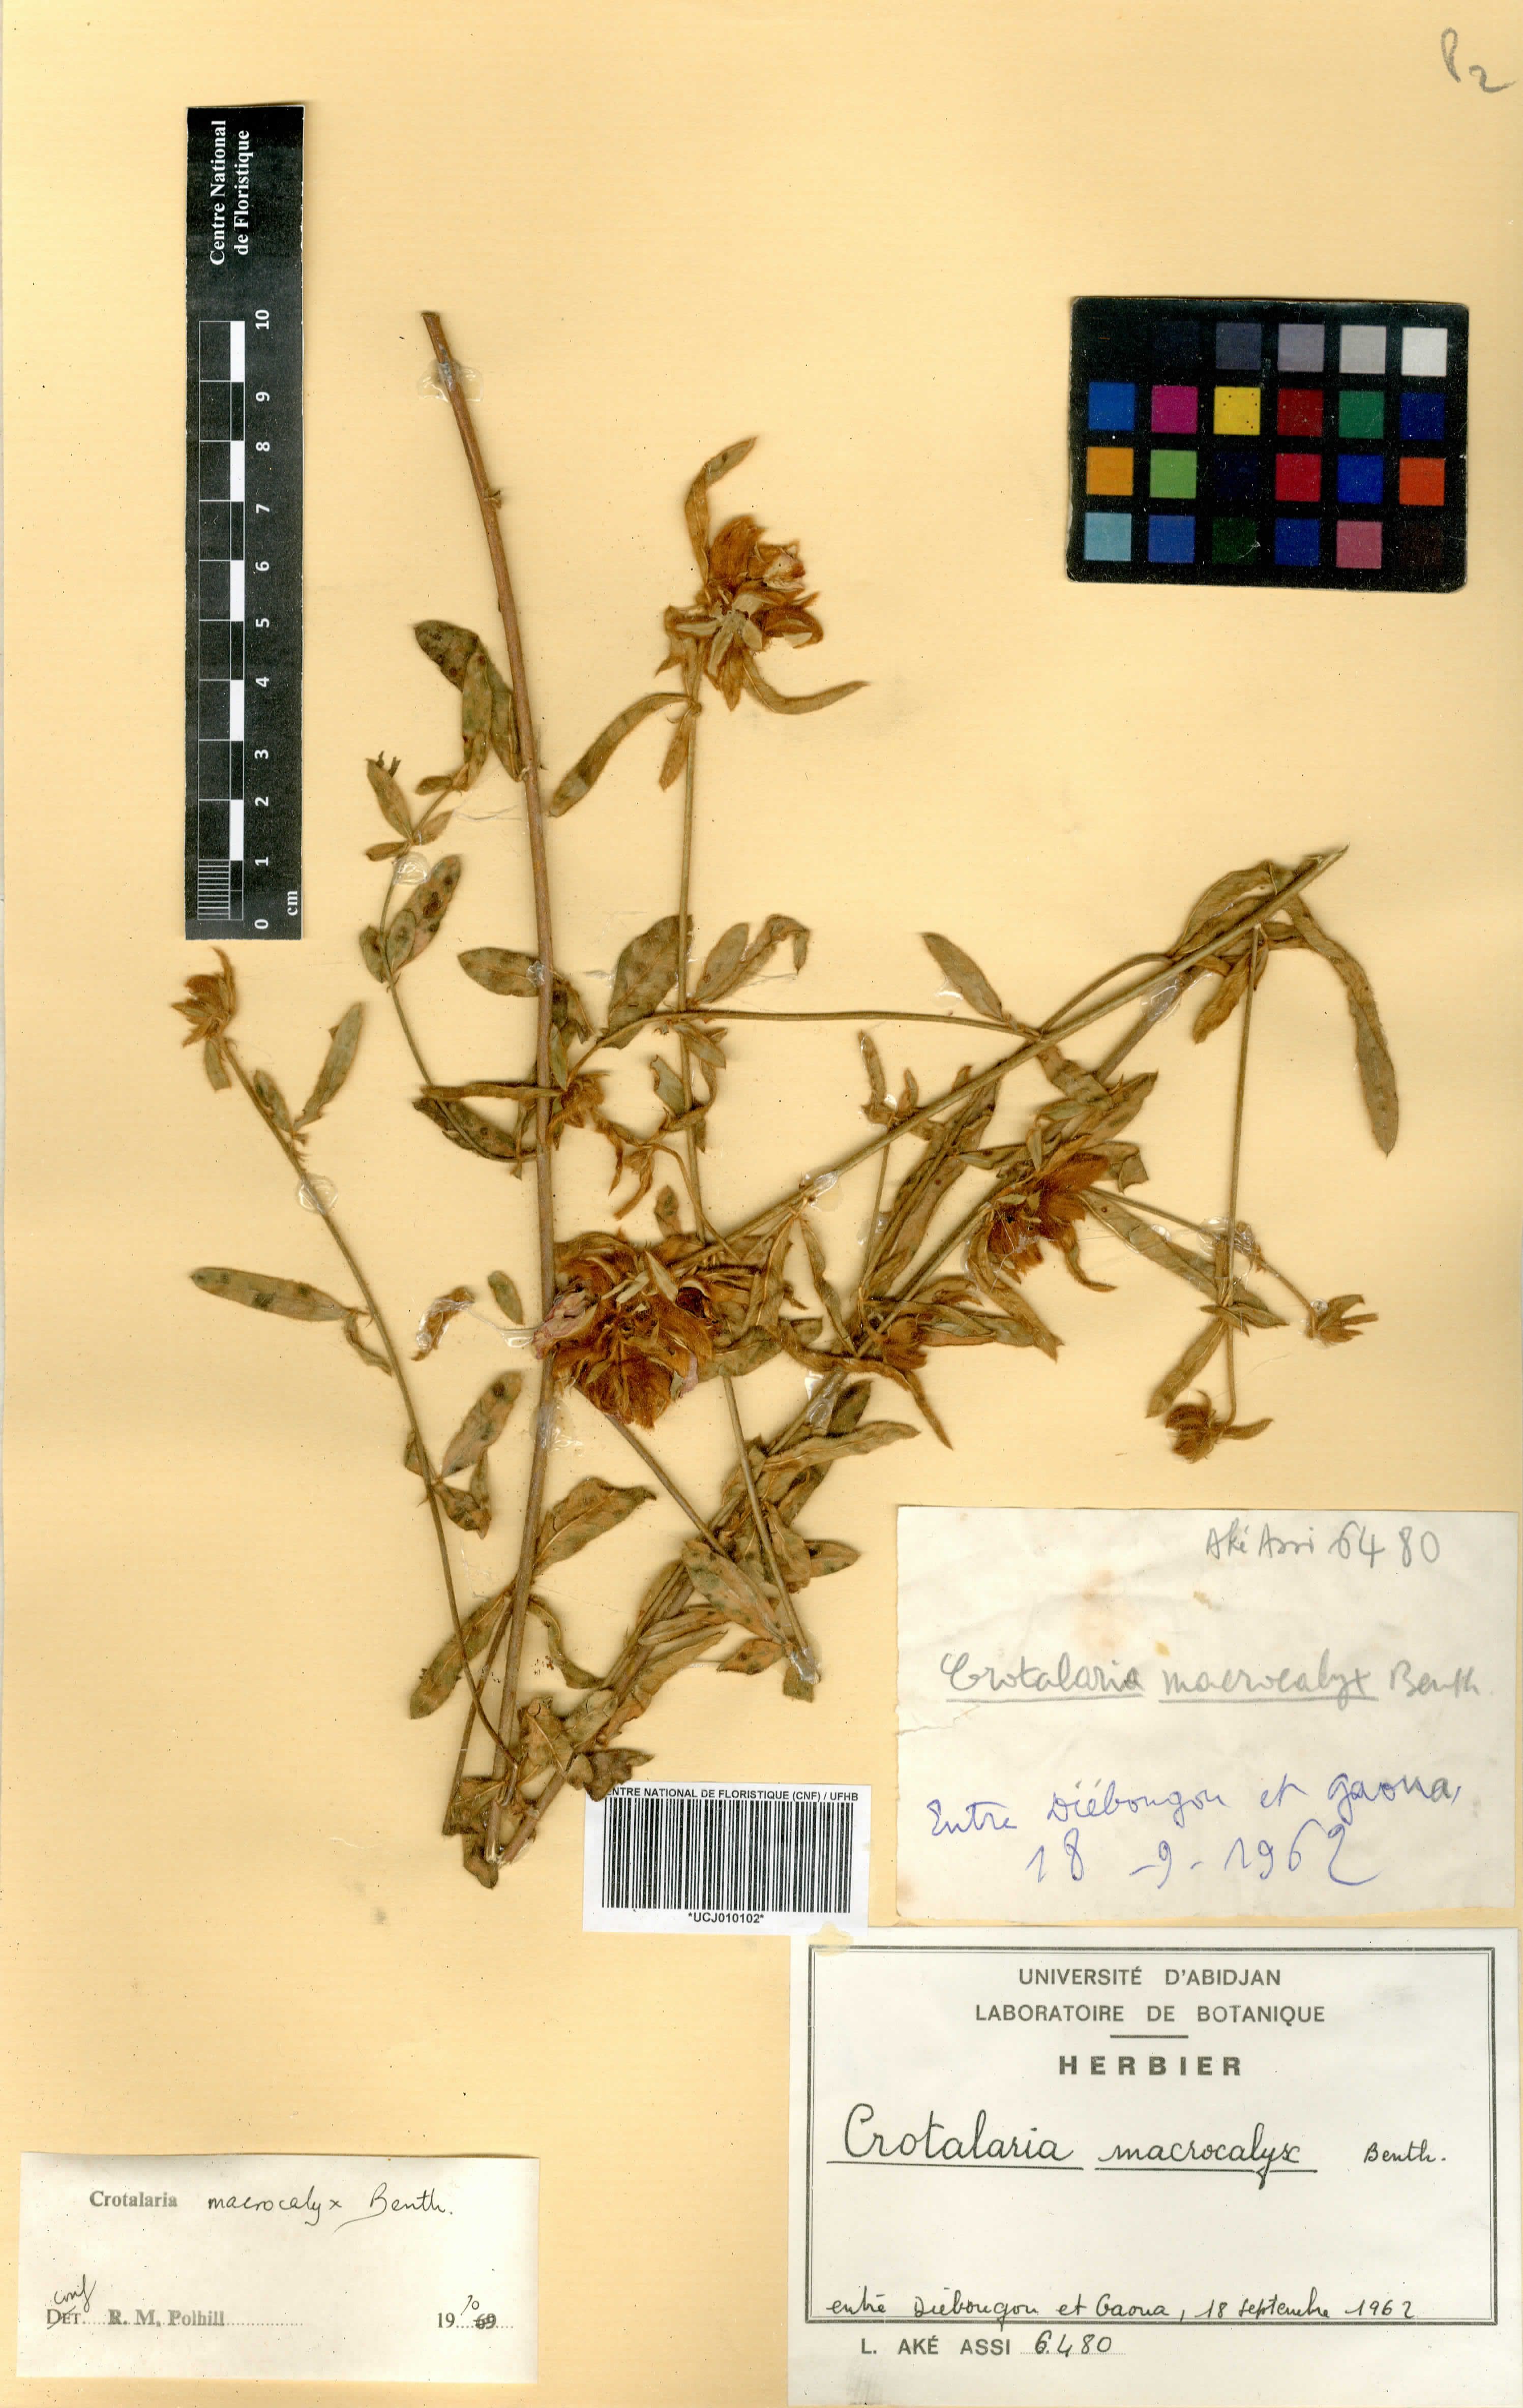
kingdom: Plantae
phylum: Tracheophyta
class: Magnoliopsida
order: Fabales
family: Fabaceae
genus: Crotalaria
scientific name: Crotalaria macrocalyx
